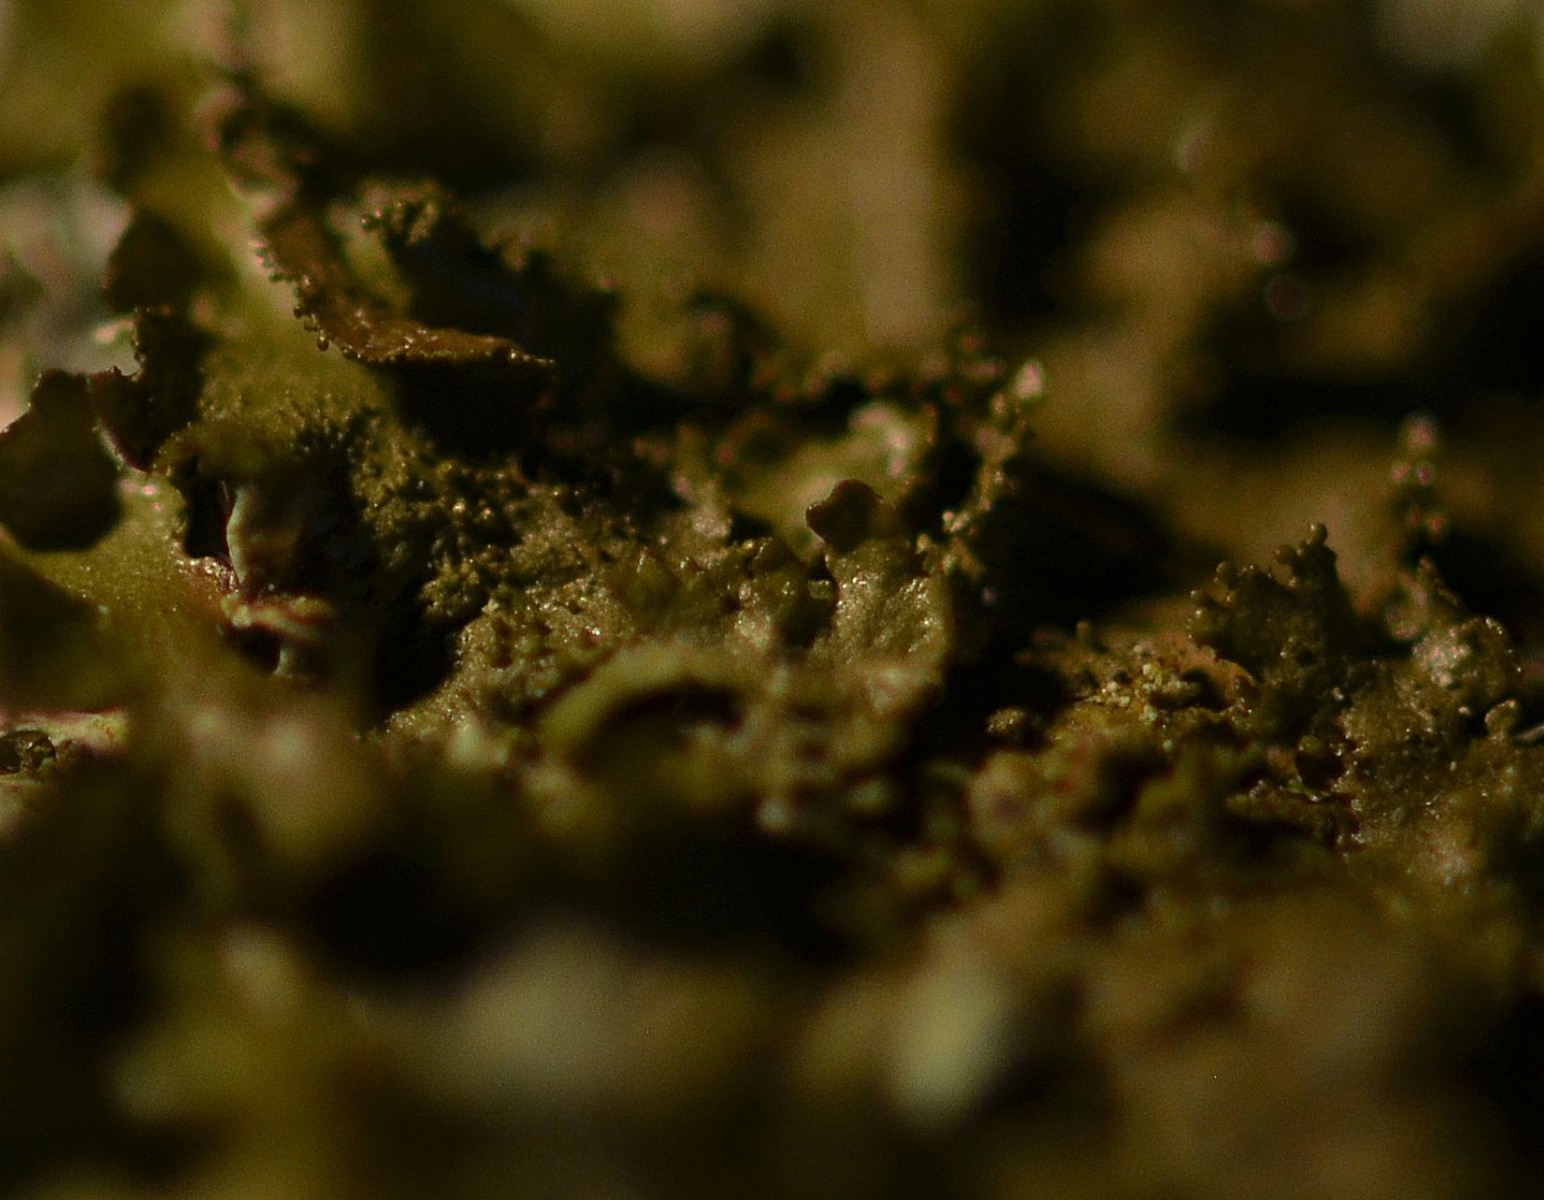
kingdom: Fungi
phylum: Ascomycota
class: Lecanoromycetes
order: Lecanorales
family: Parmeliaceae
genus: Melanohalea
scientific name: Melanohalea exasperatula
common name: kølle-skållav
